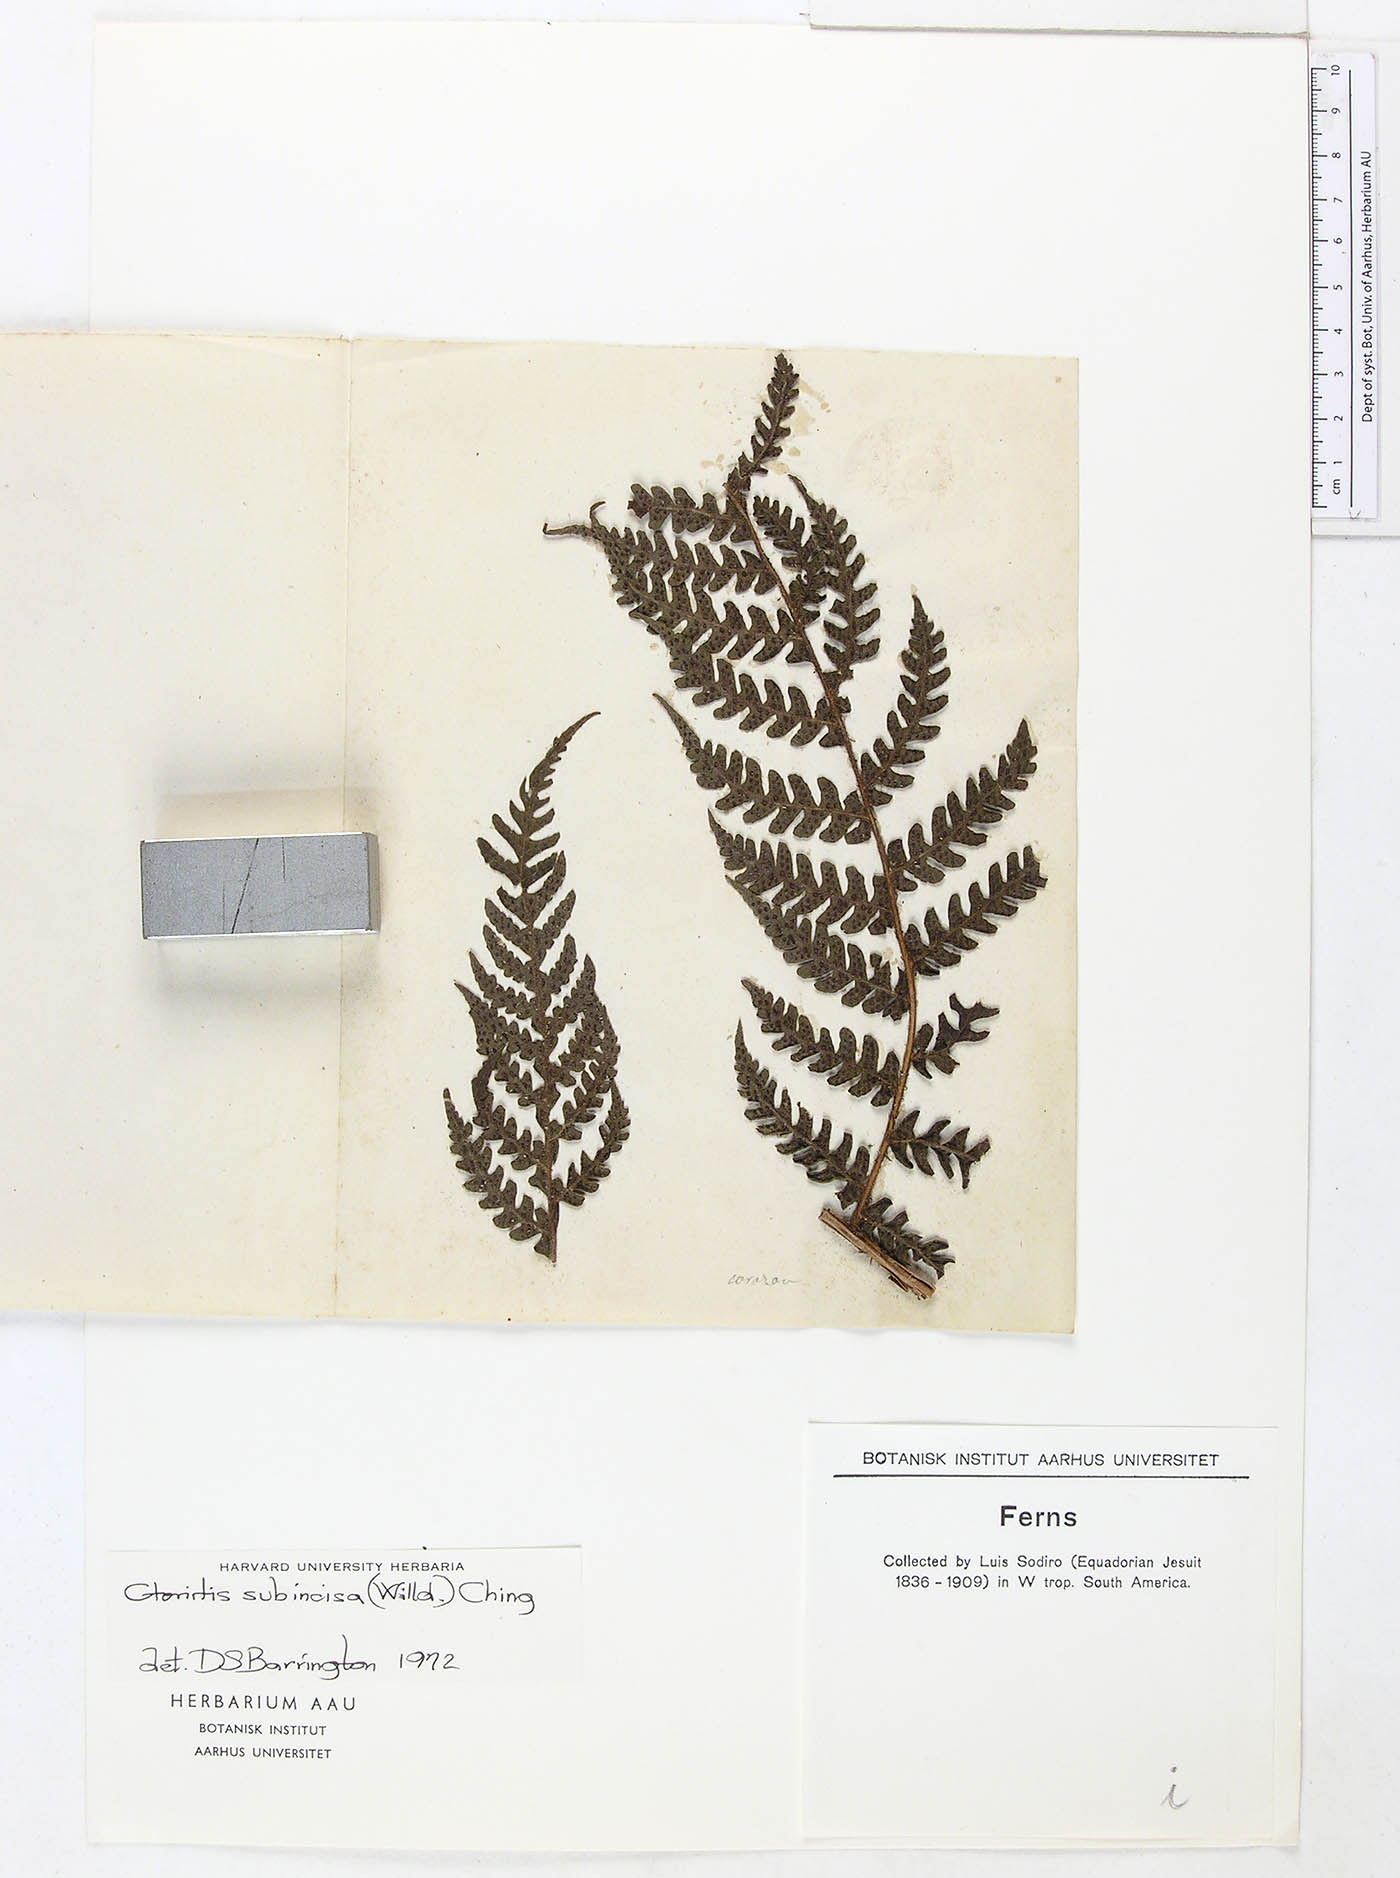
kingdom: Plantae
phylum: Tracheophyta
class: Polypodiopsida
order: Polypodiales
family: Dryopteridaceae
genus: Megalastrum
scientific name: Megalastrum alticola
